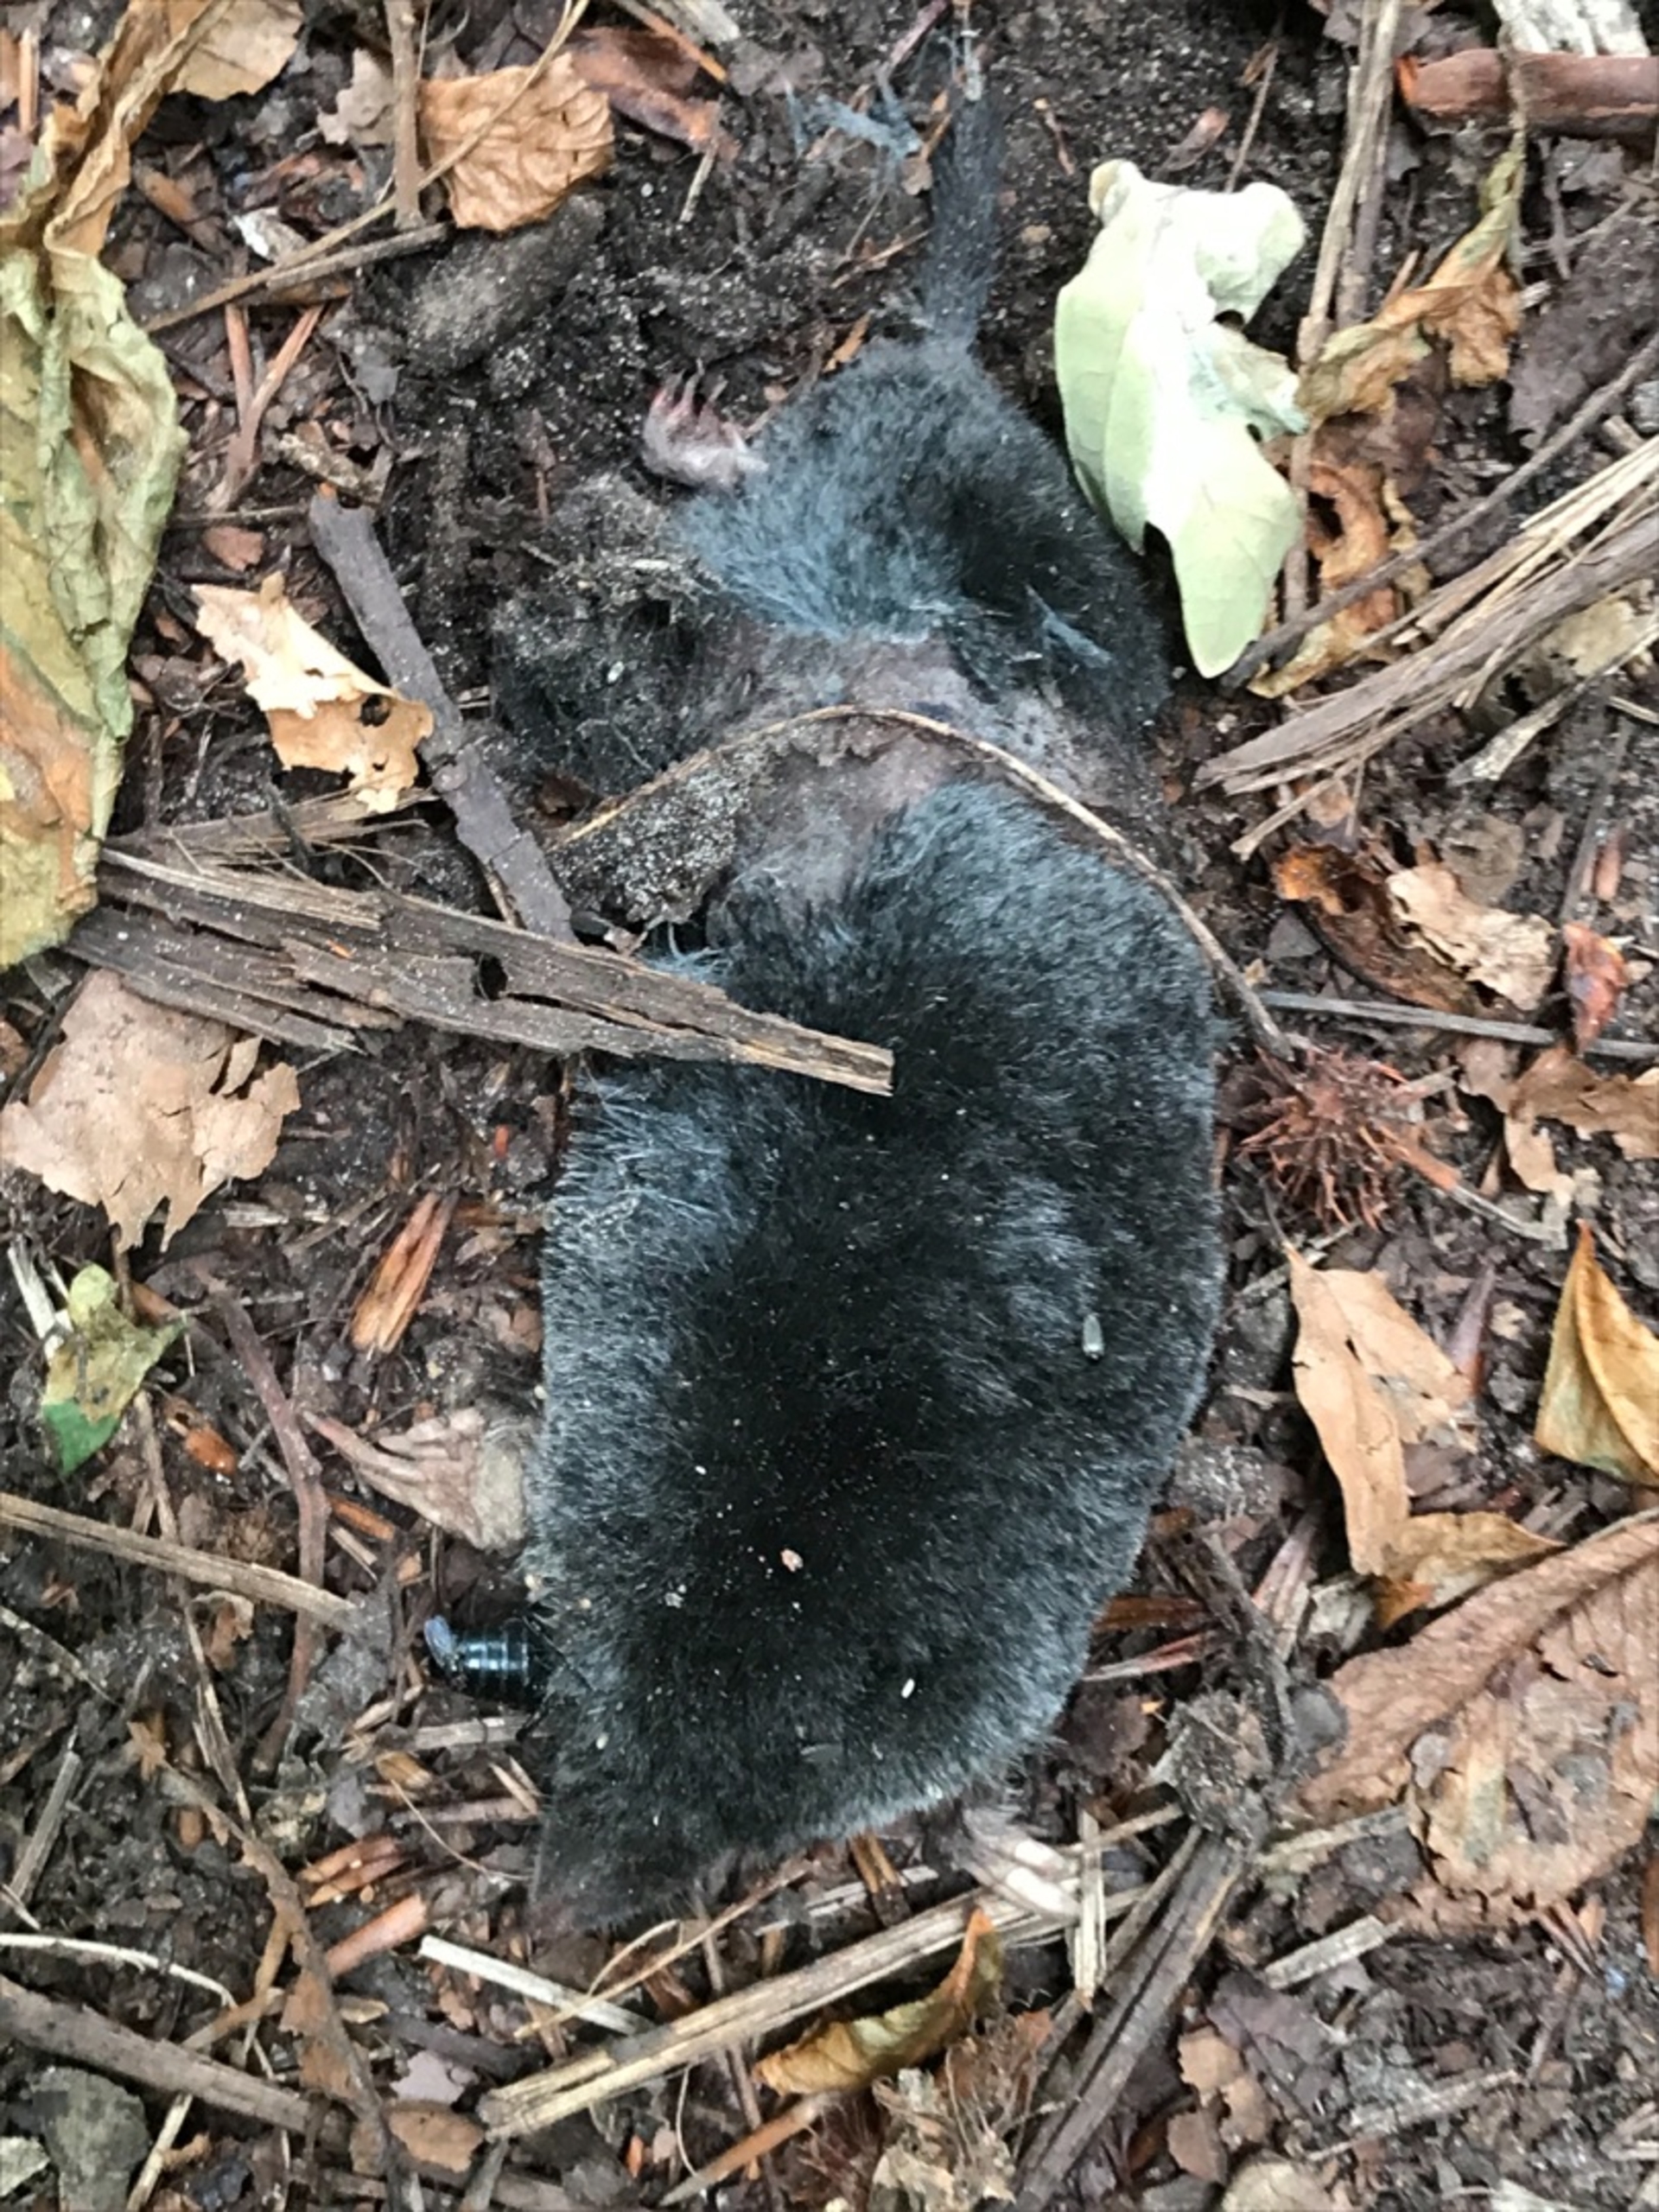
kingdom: Animalia
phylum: Chordata
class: Mammalia
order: Soricomorpha
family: Talpidae
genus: Talpa
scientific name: Talpa europaea
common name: Muldvarp
